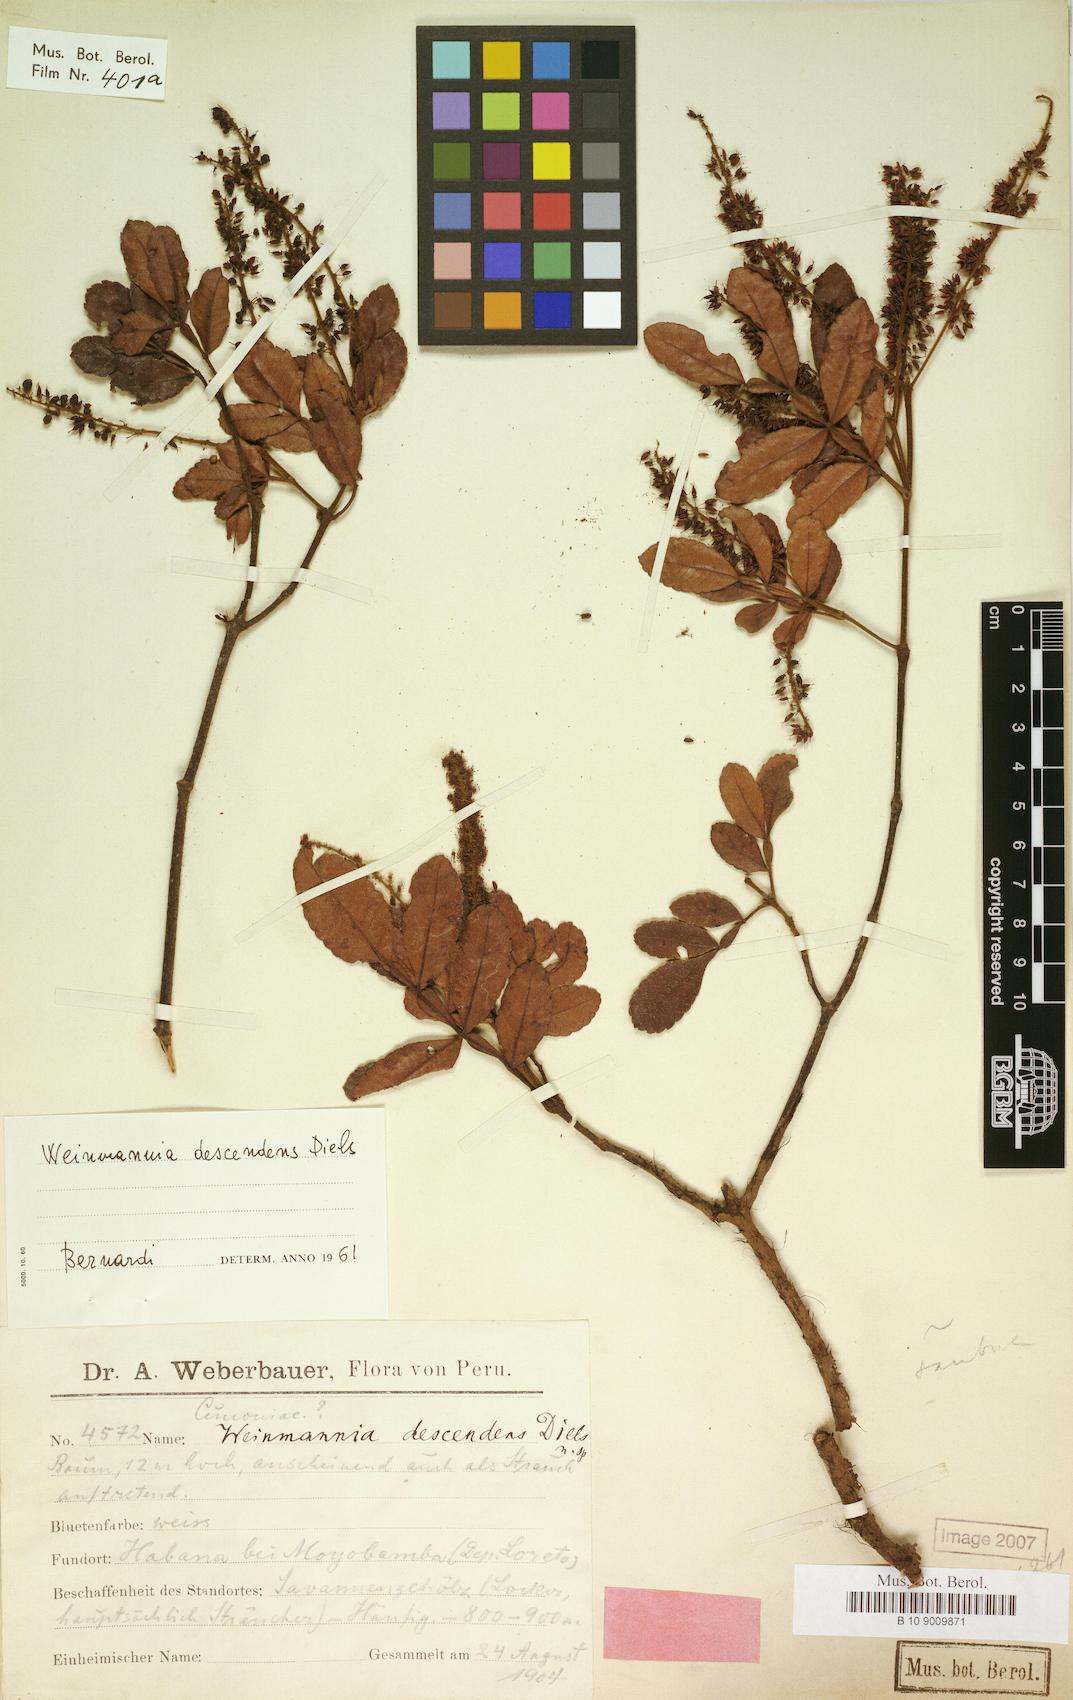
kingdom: Plantae
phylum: Tracheophyta
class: Magnoliopsida
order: Oxalidales
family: Cunoniaceae
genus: Weinmannia
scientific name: Weinmannia descendens
